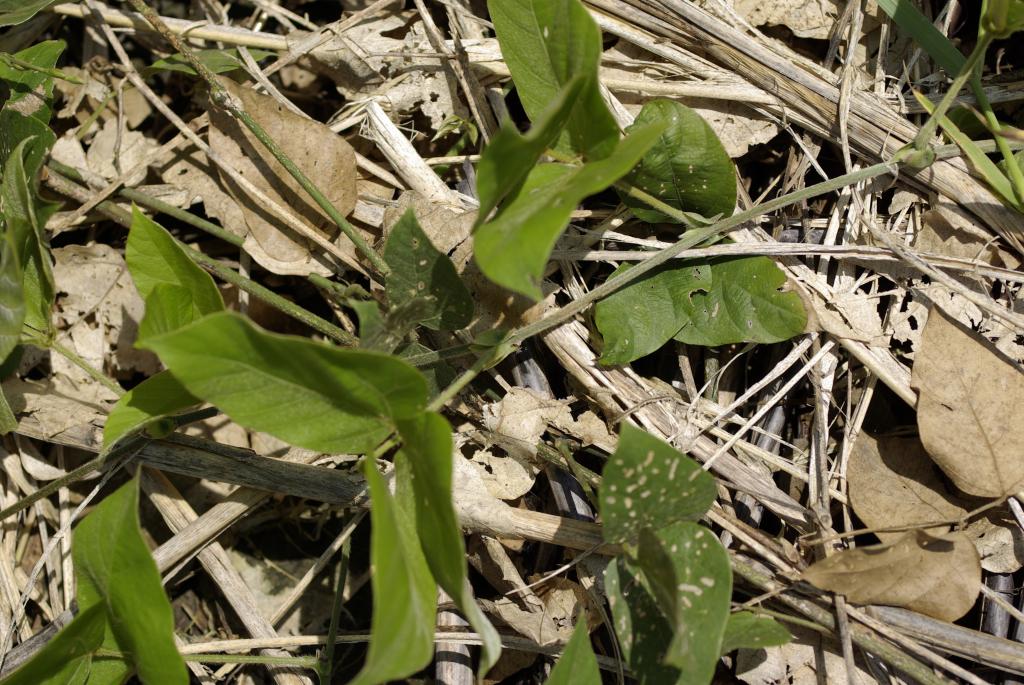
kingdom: Plantae
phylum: Tracheophyta
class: Magnoliopsida
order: Fabales
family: Fabaceae
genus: Pueraria
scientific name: Pueraria montana
